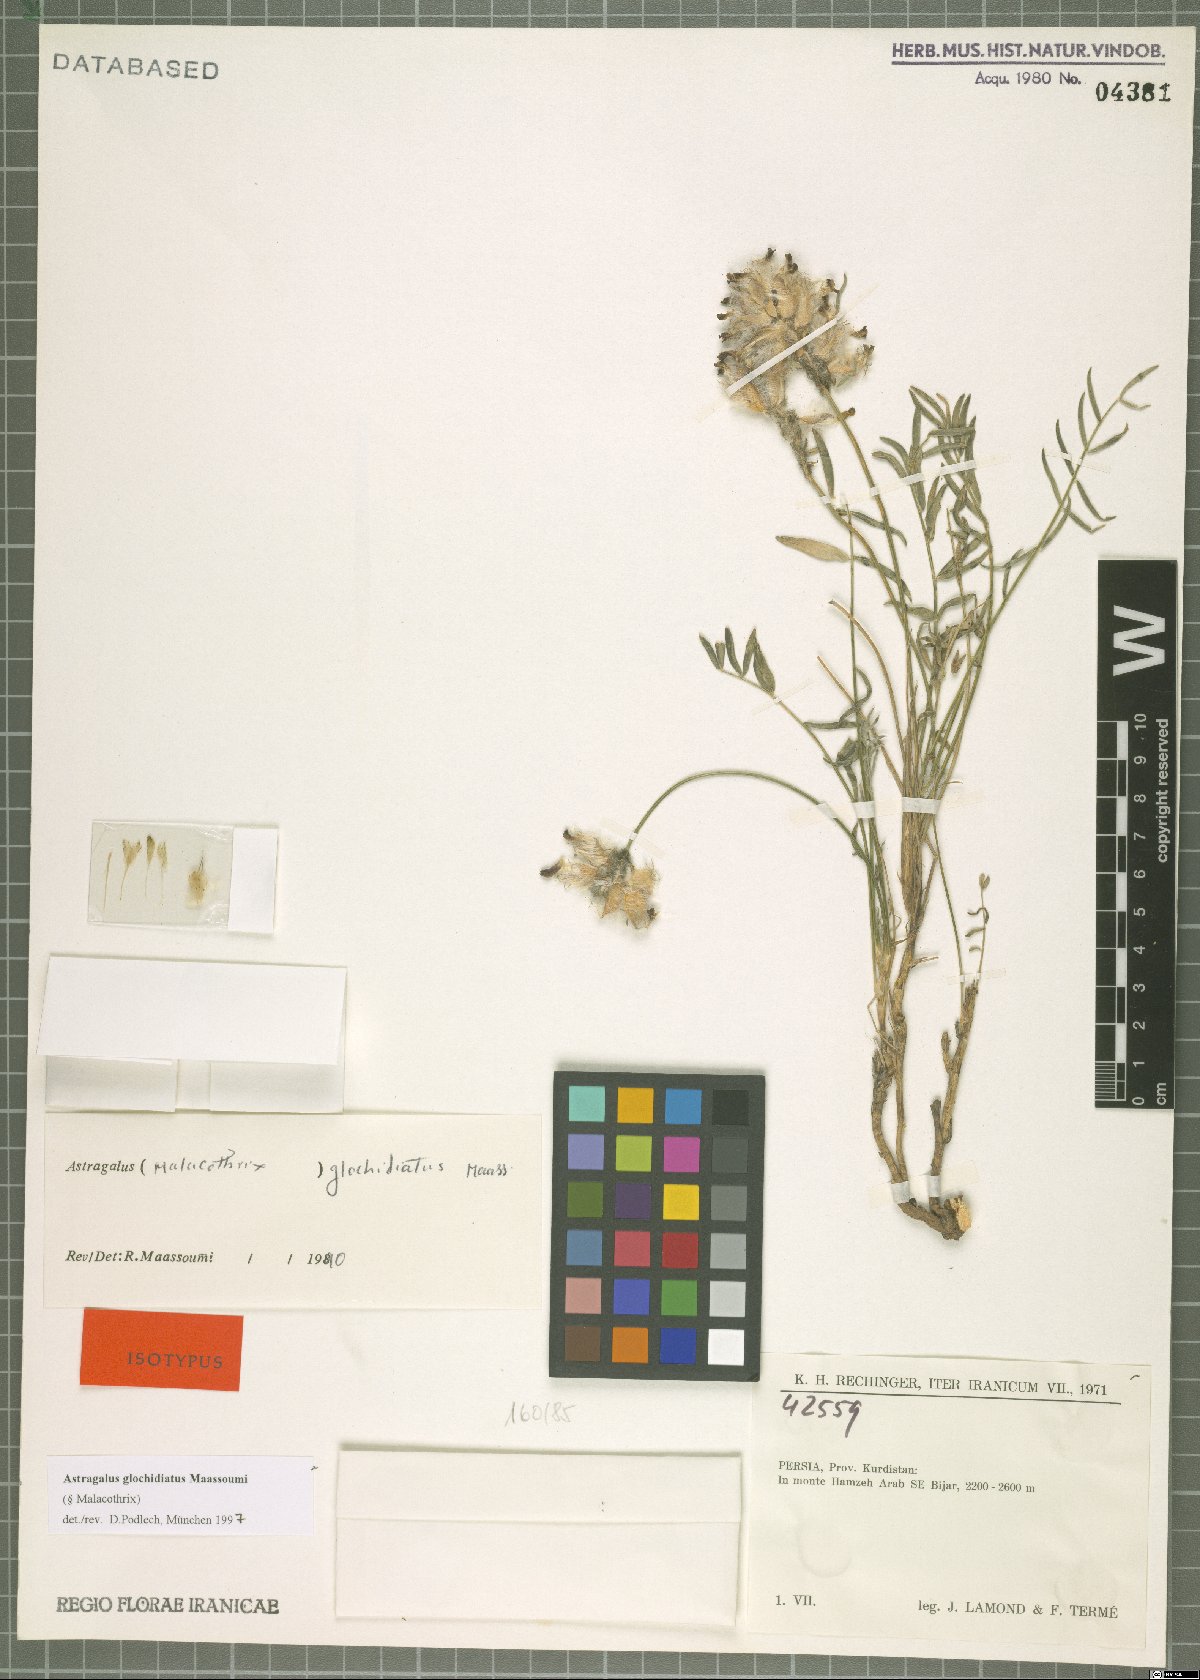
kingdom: Plantae
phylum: Tracheophyta
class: Magnoliopsida
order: Fabales
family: Fabaceae
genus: Astragalus
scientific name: Astragalus glochidiatus
